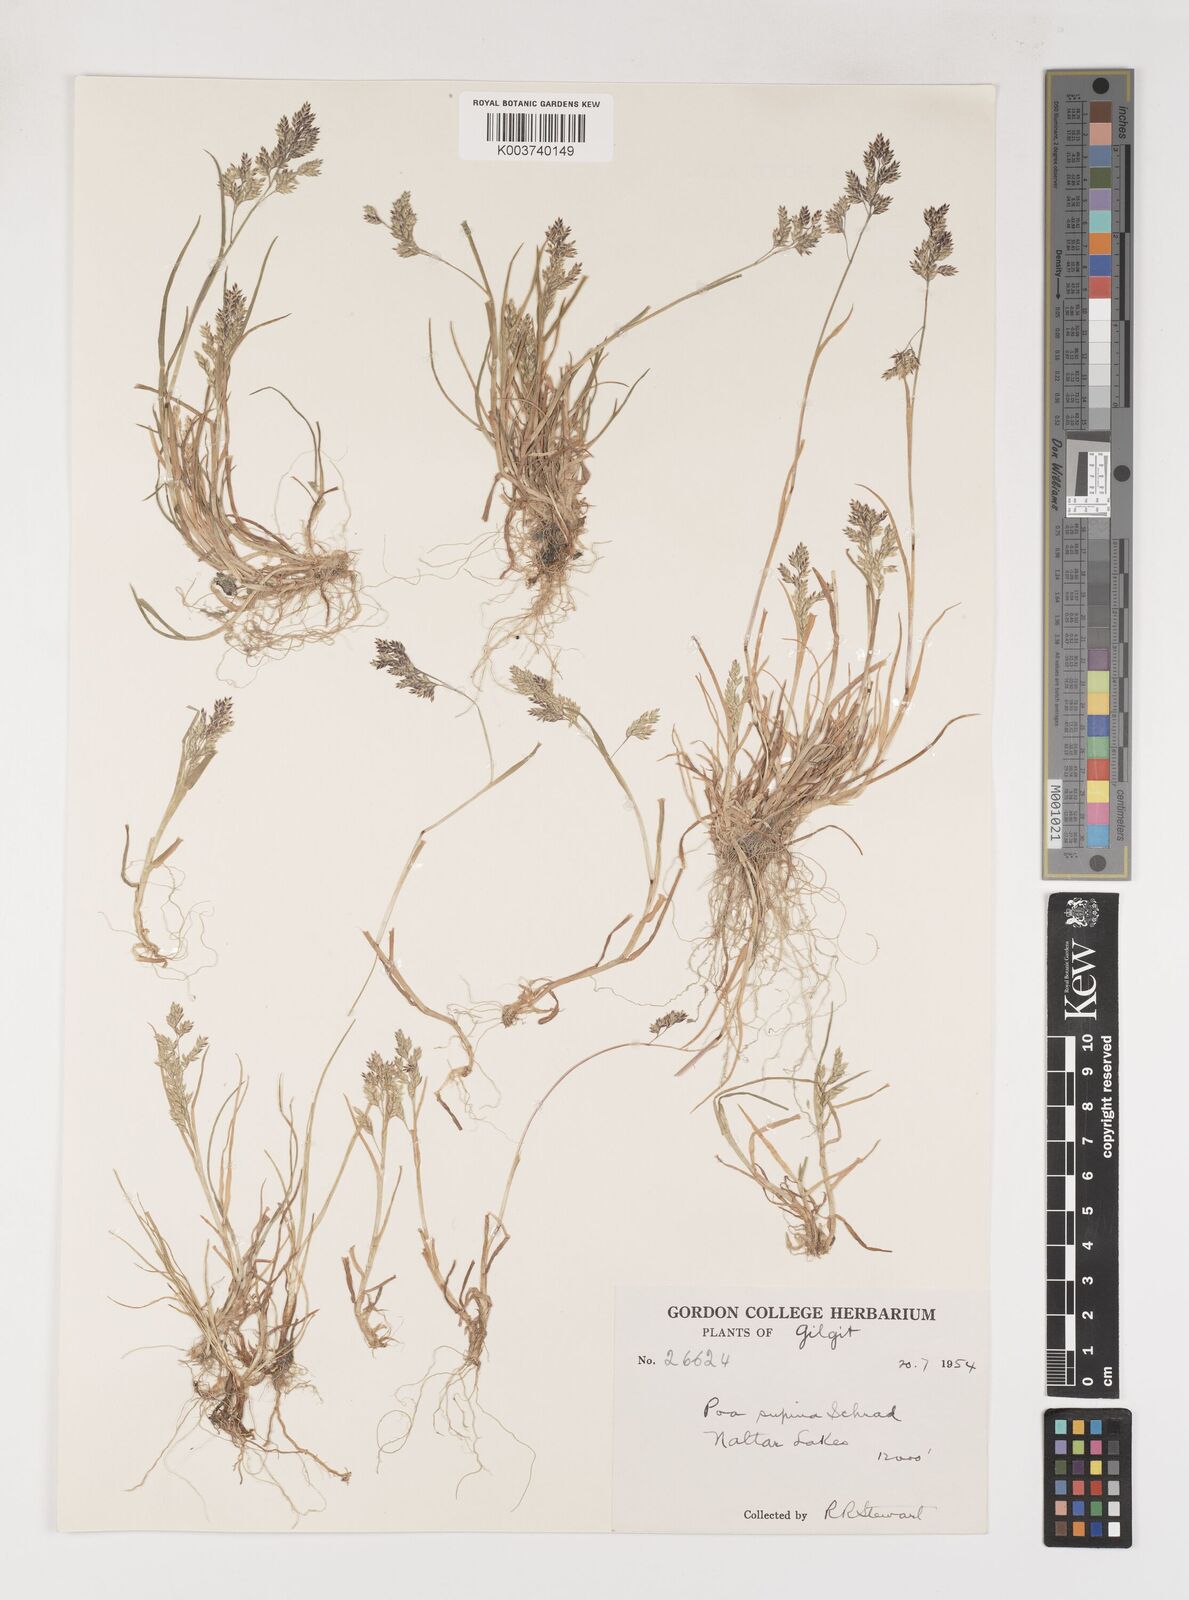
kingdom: Plantae
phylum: Tracheophyta
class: Liliopsida
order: Poales
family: Poaceae
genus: Poa
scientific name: Poa supina
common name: Supina bluegrass
